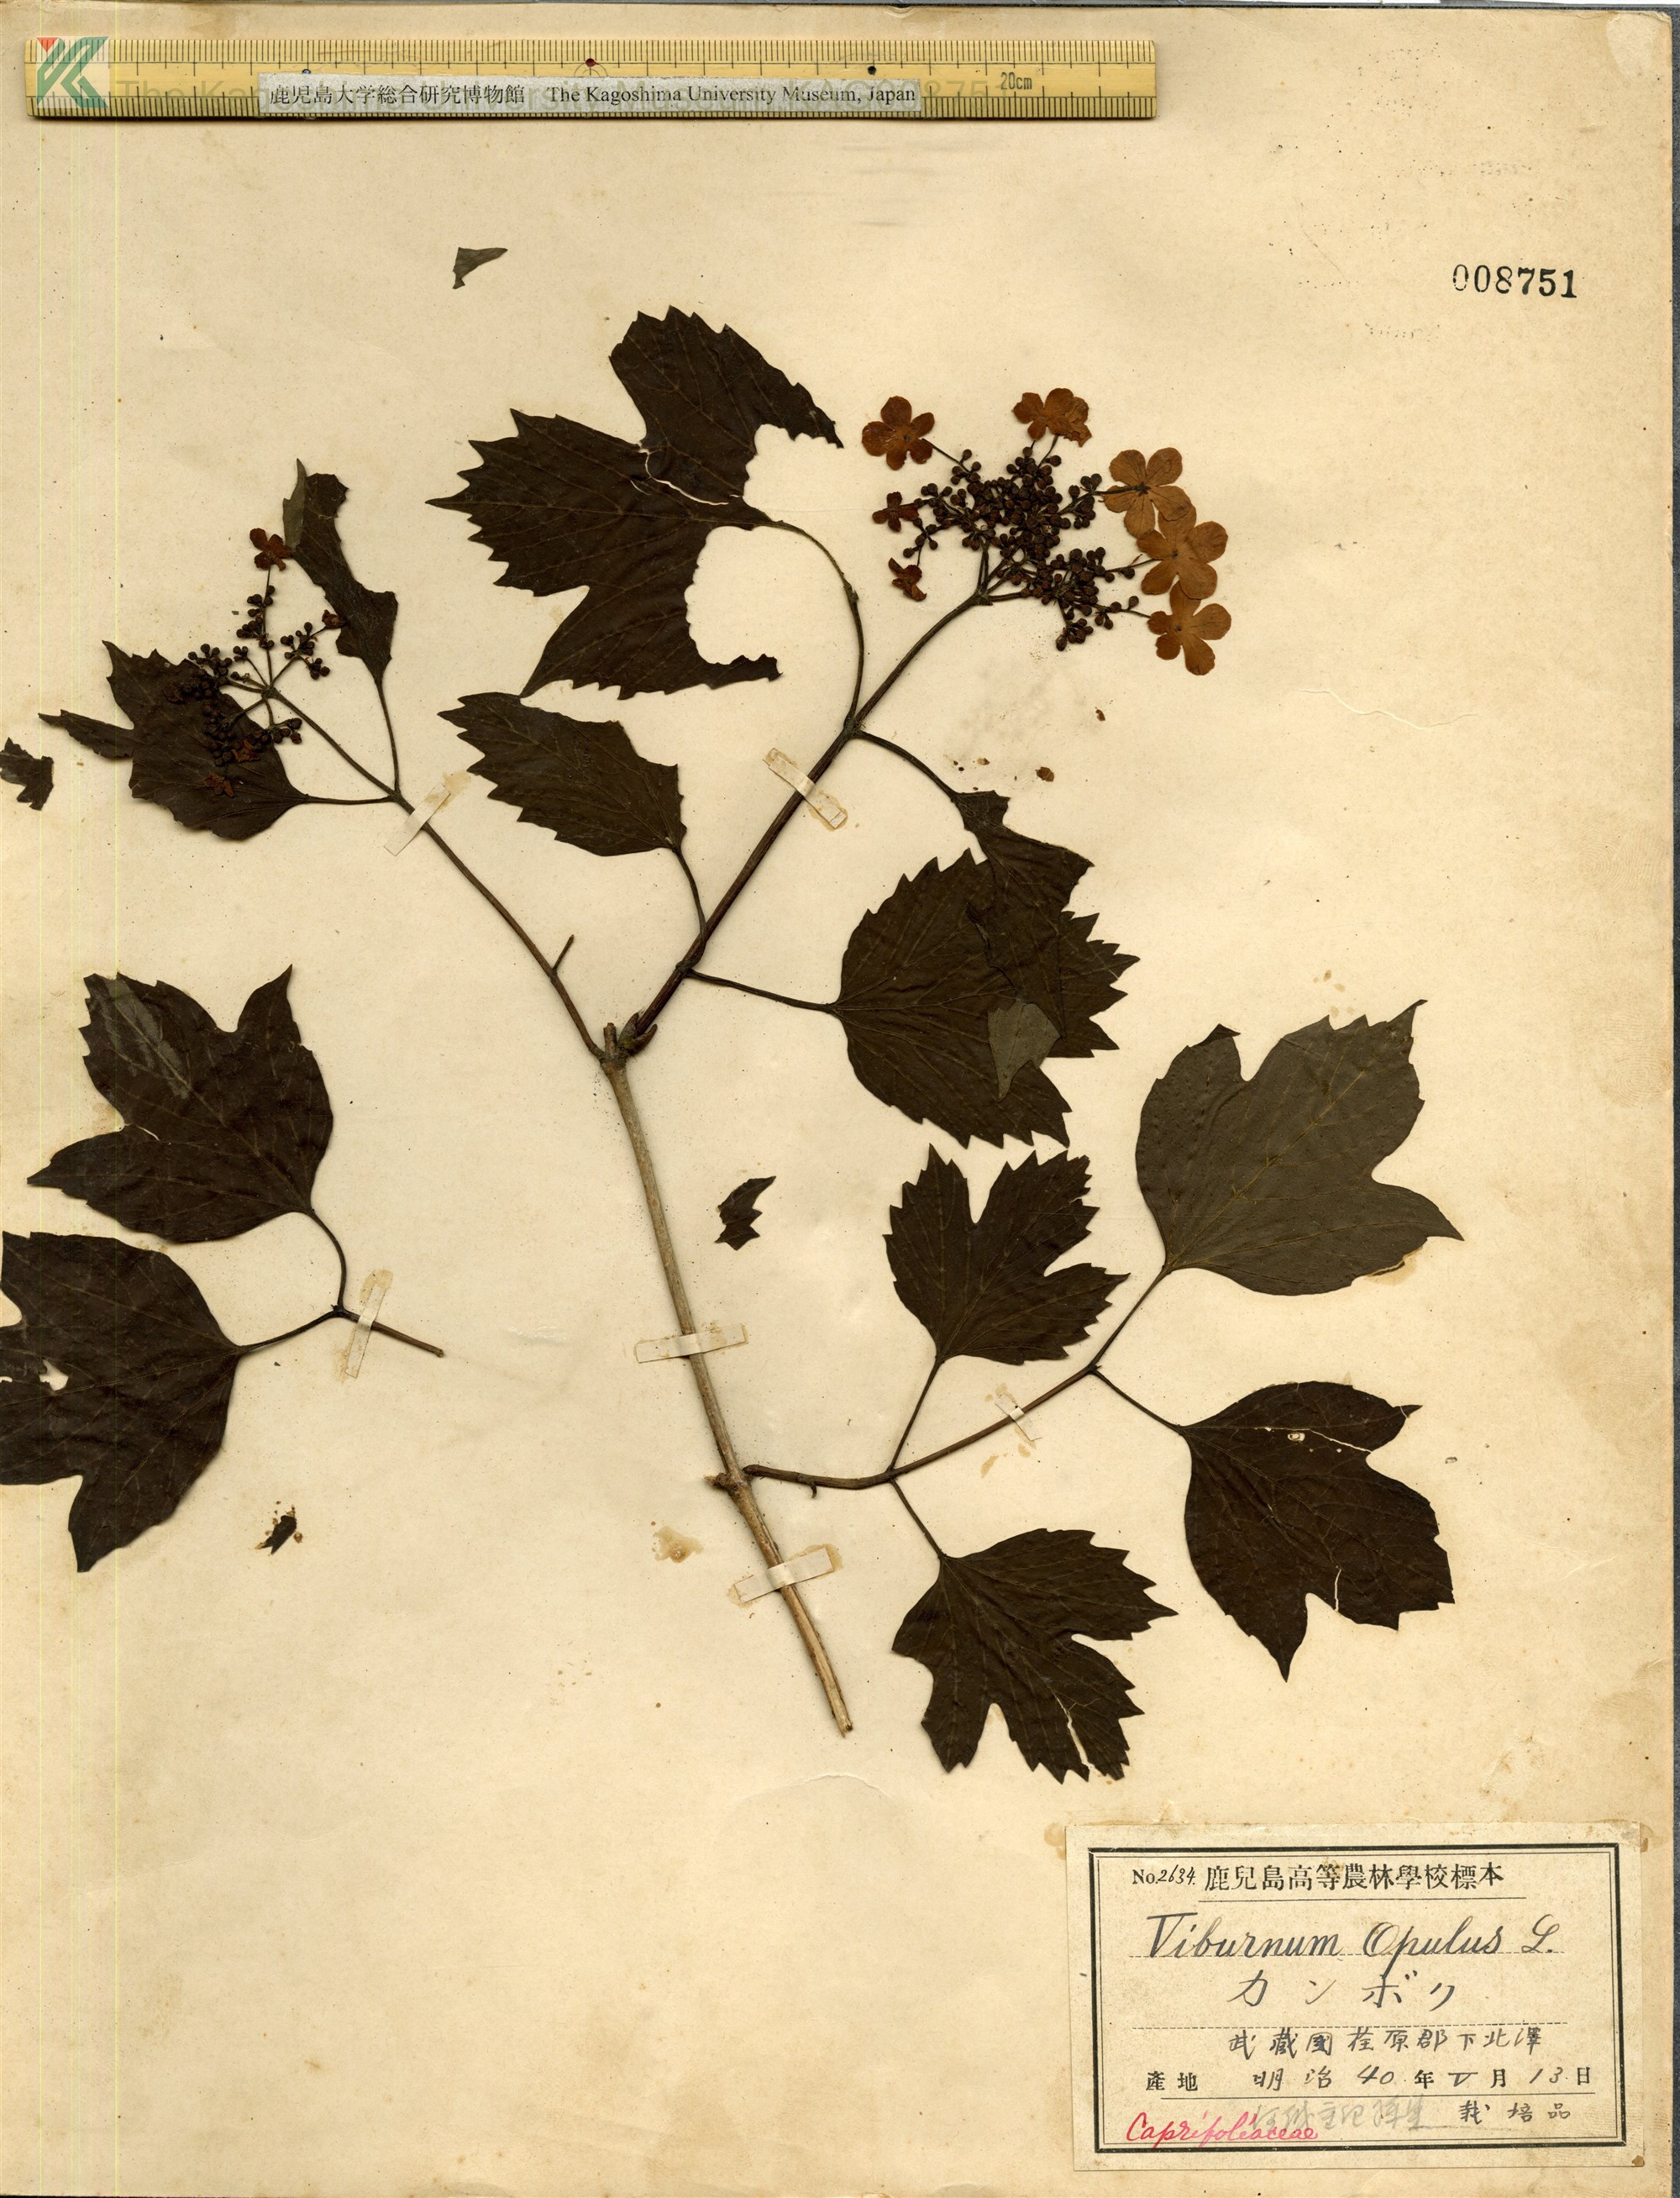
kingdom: Plantae
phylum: Tracheophyta
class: Magnoliopsida
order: Dipsacales
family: Viburnaceae
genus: Viburnum
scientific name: Viburnum opulus
